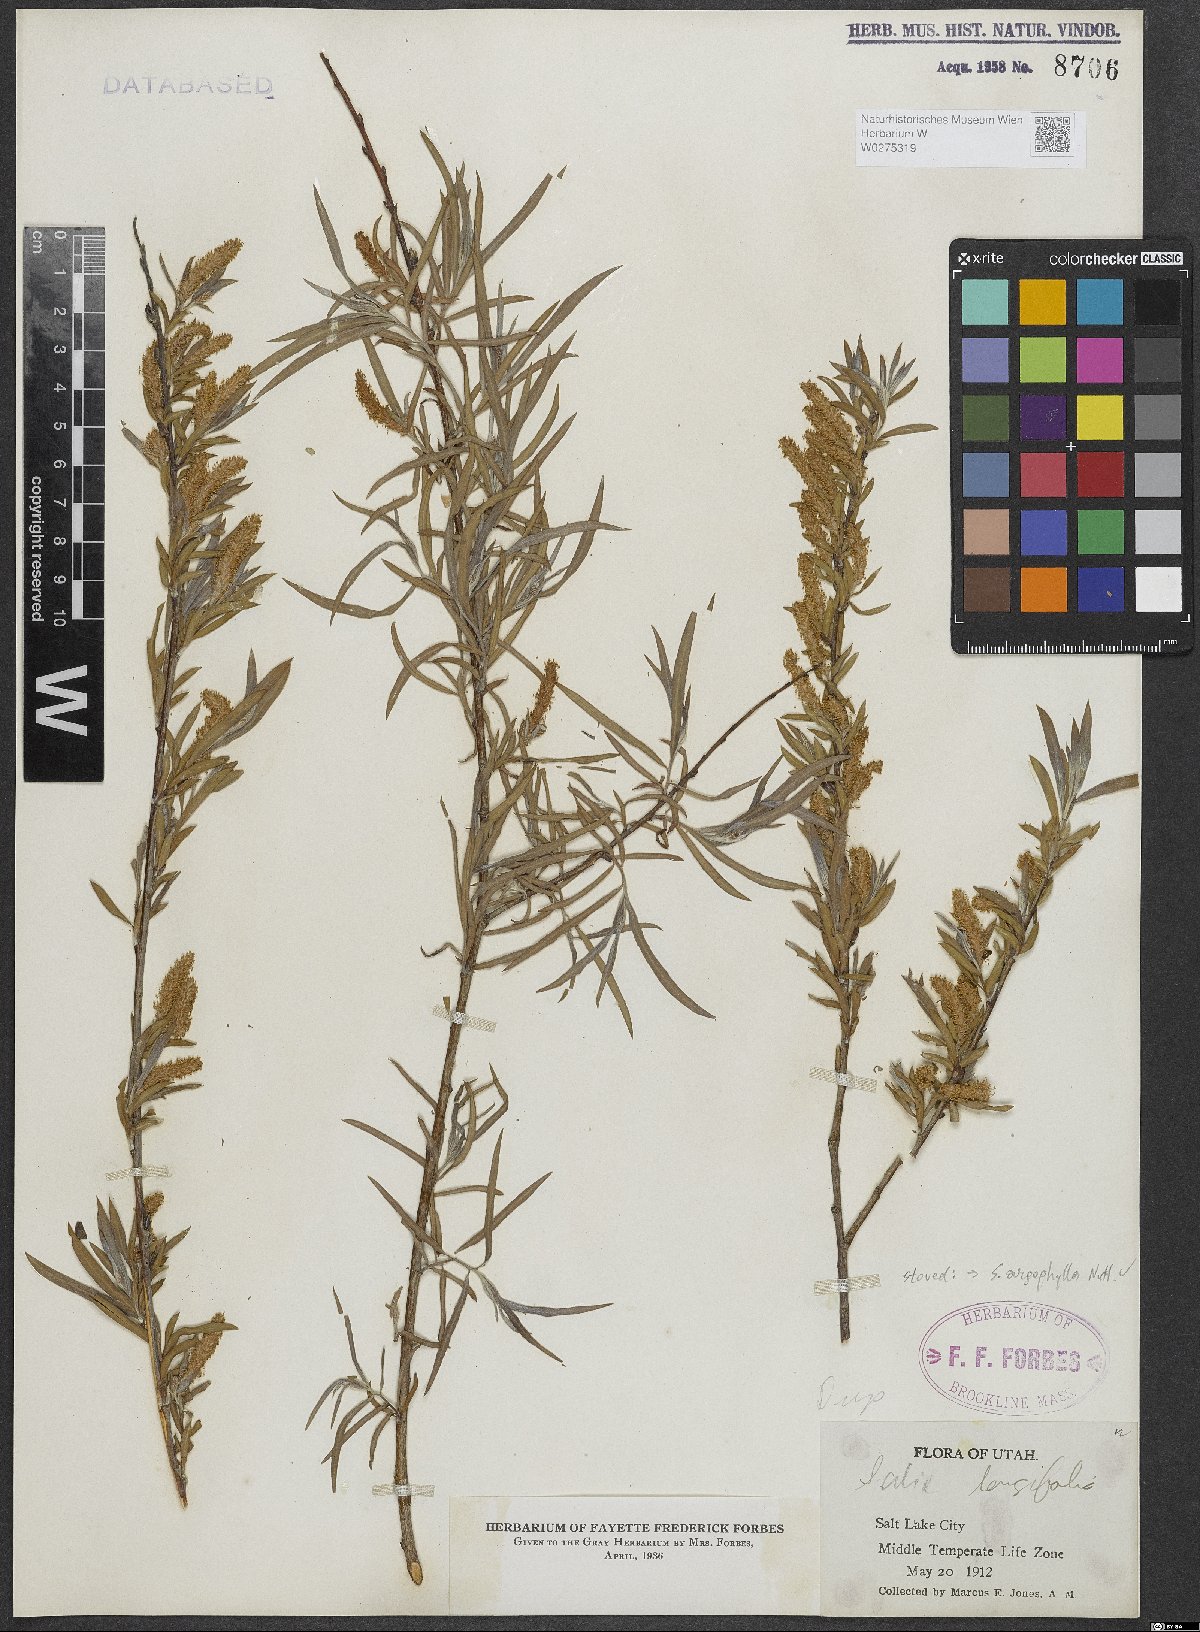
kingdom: Plantae
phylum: Tracheophyta
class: Magnoliopsida
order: Malpighiales
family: Salicaceae
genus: Salix
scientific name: Salix exigua
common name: Coyote willow
